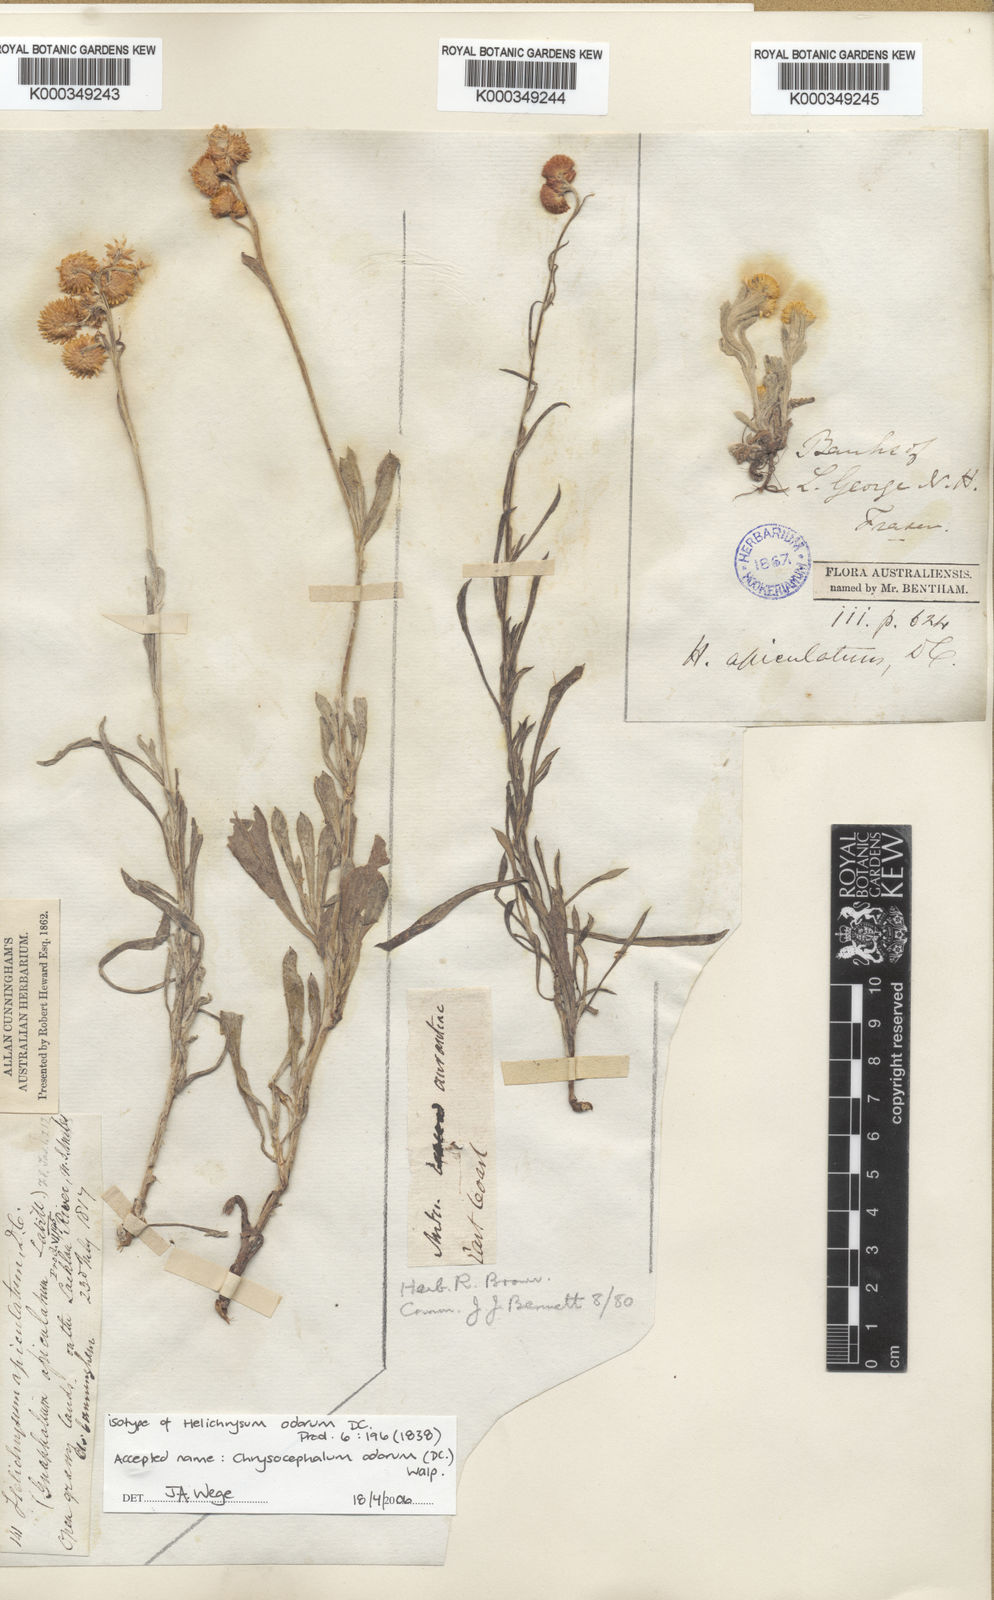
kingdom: Plantae
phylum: Tracheophyta
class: Magnoliopsida
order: Asterales
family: Asteraceae
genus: Chrysocephalum
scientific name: Chrysocephalum apiculatum
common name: Common everlasting
